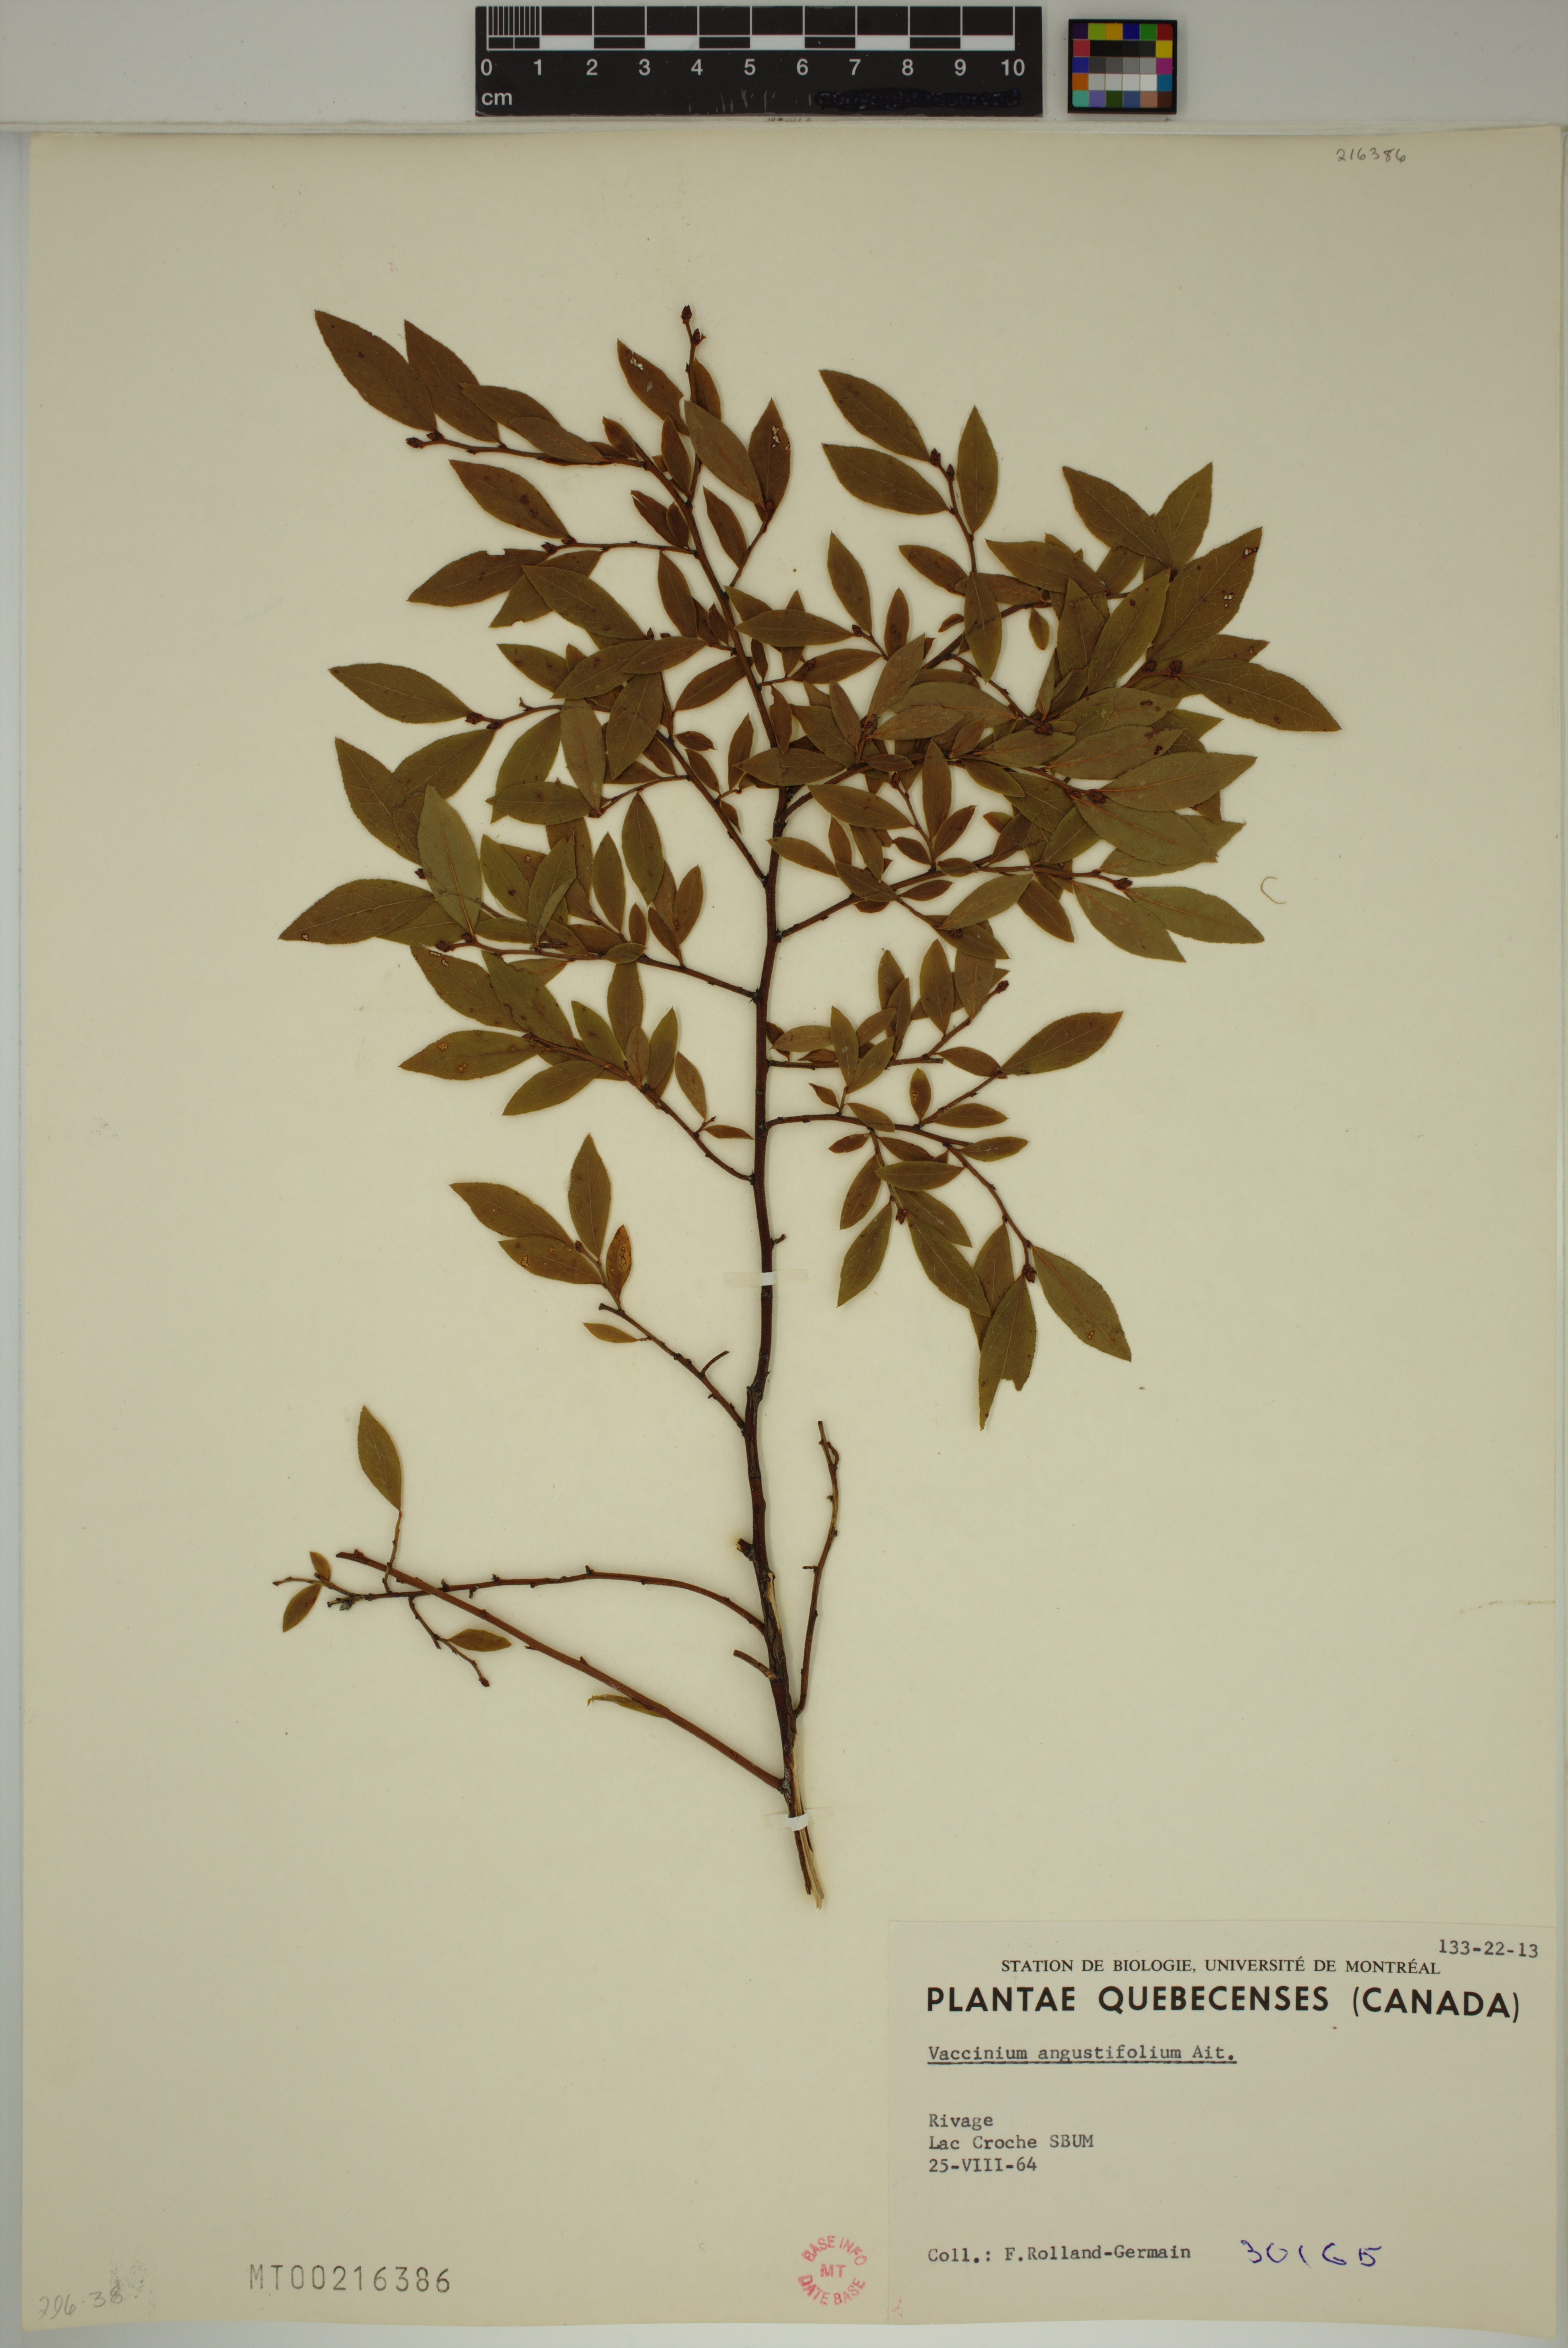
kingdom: Plantae
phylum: Tracheophyta
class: Magnoliopsida
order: Ericales
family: Ericaceae
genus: Vaccinium
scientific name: Vaccinium angustifolium
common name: Early lowbush blueberry
